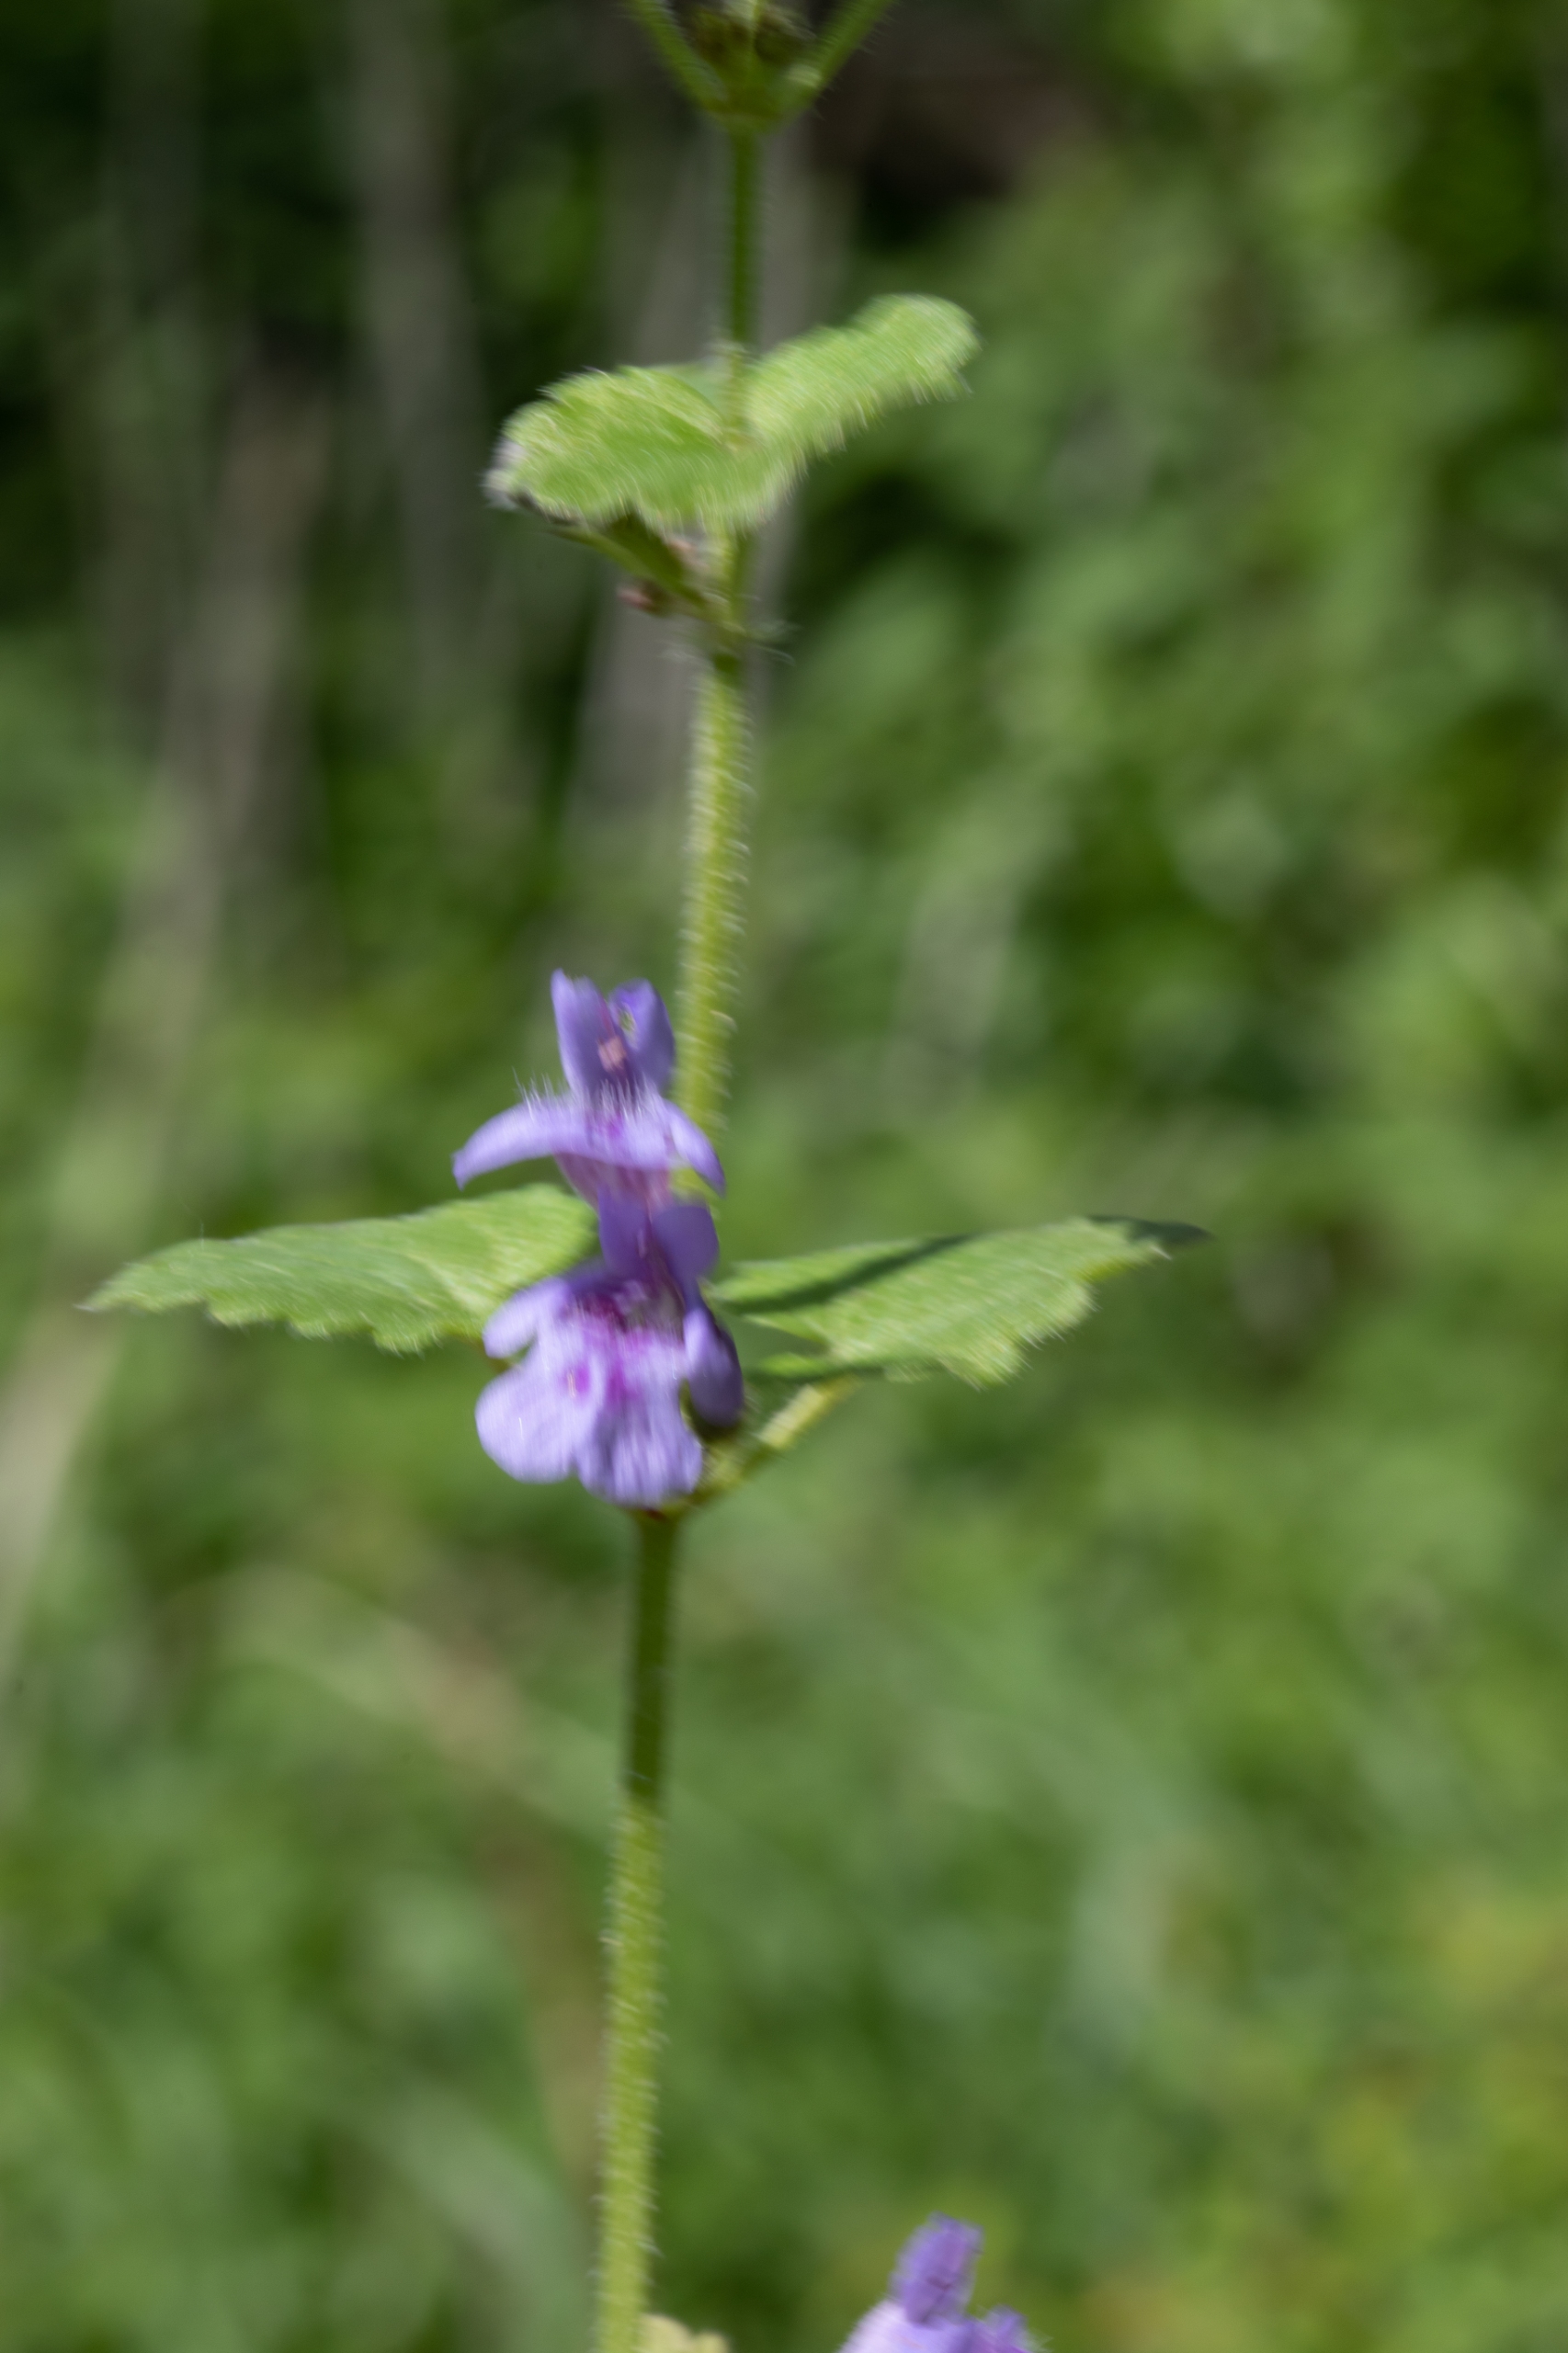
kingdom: Plantae
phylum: Tracheophyta
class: Magnoliopsida
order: Lamiales
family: Lamiaceae
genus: Glechoma
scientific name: Glechoma hederacea
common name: Korsknap
